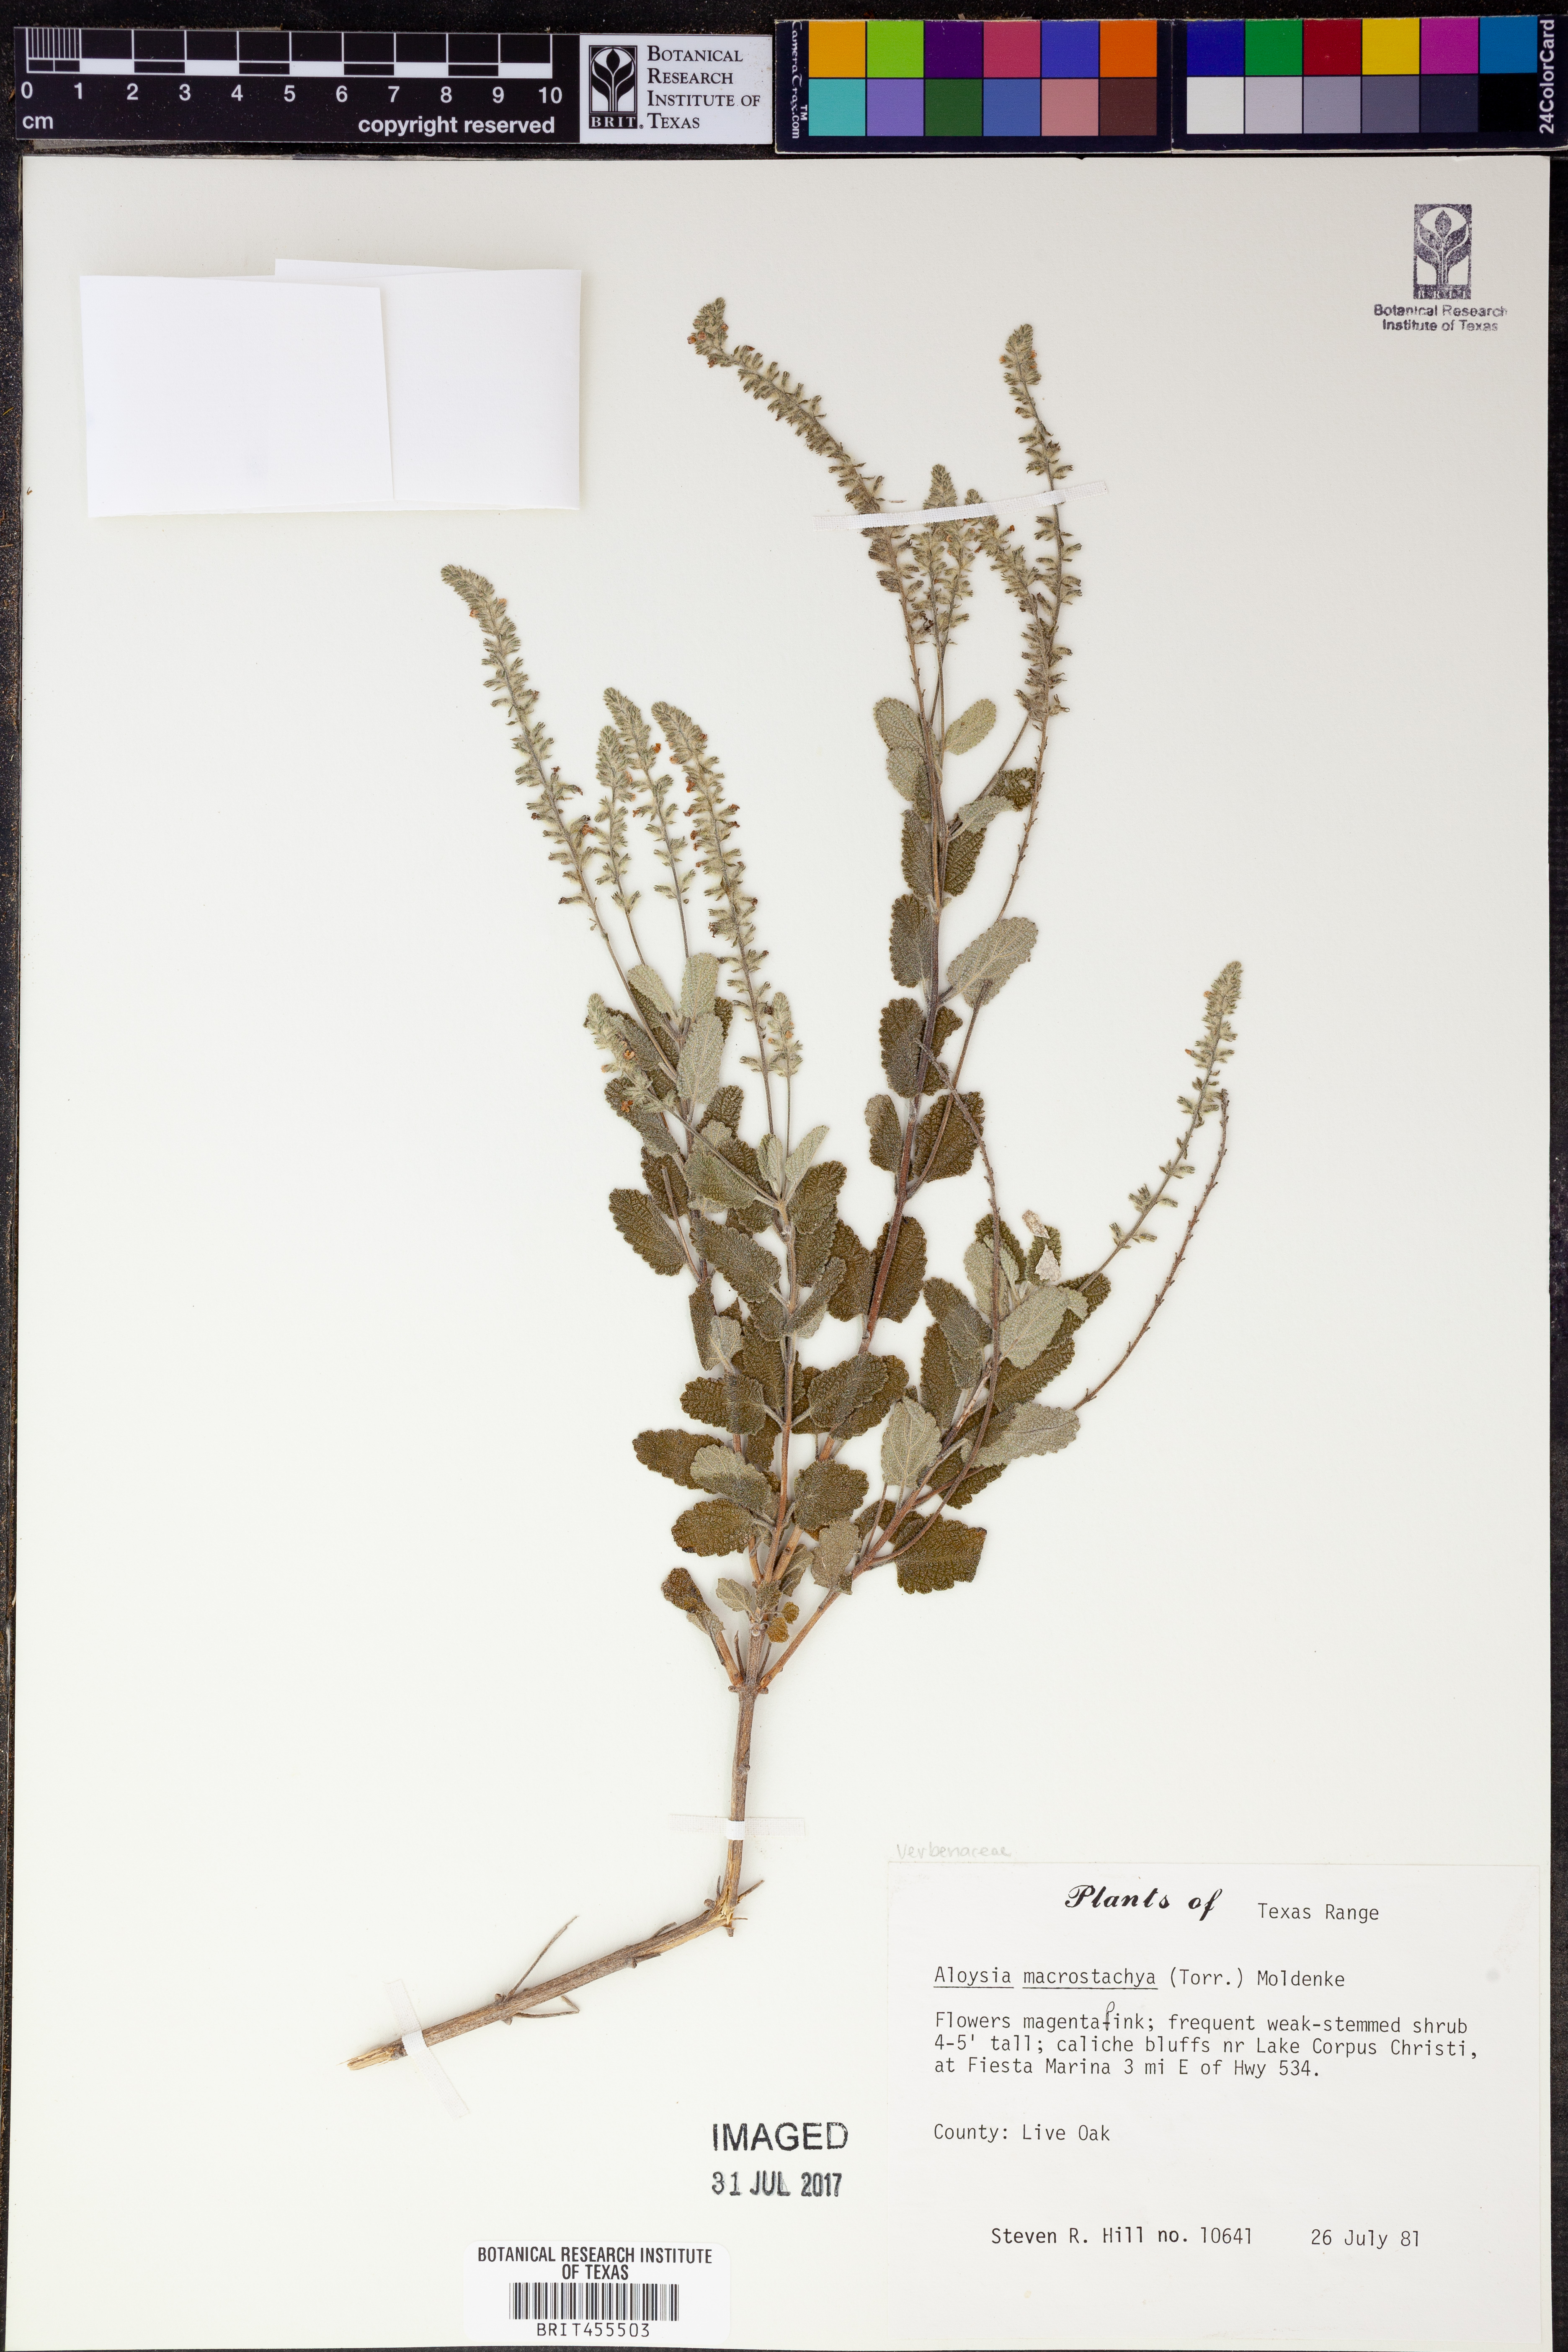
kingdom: Plantae
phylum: Tracheophyta
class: Magnoliopsida
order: Lamiales
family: Verbenaceae
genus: Aloysia
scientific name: Aloysia macrostachya
